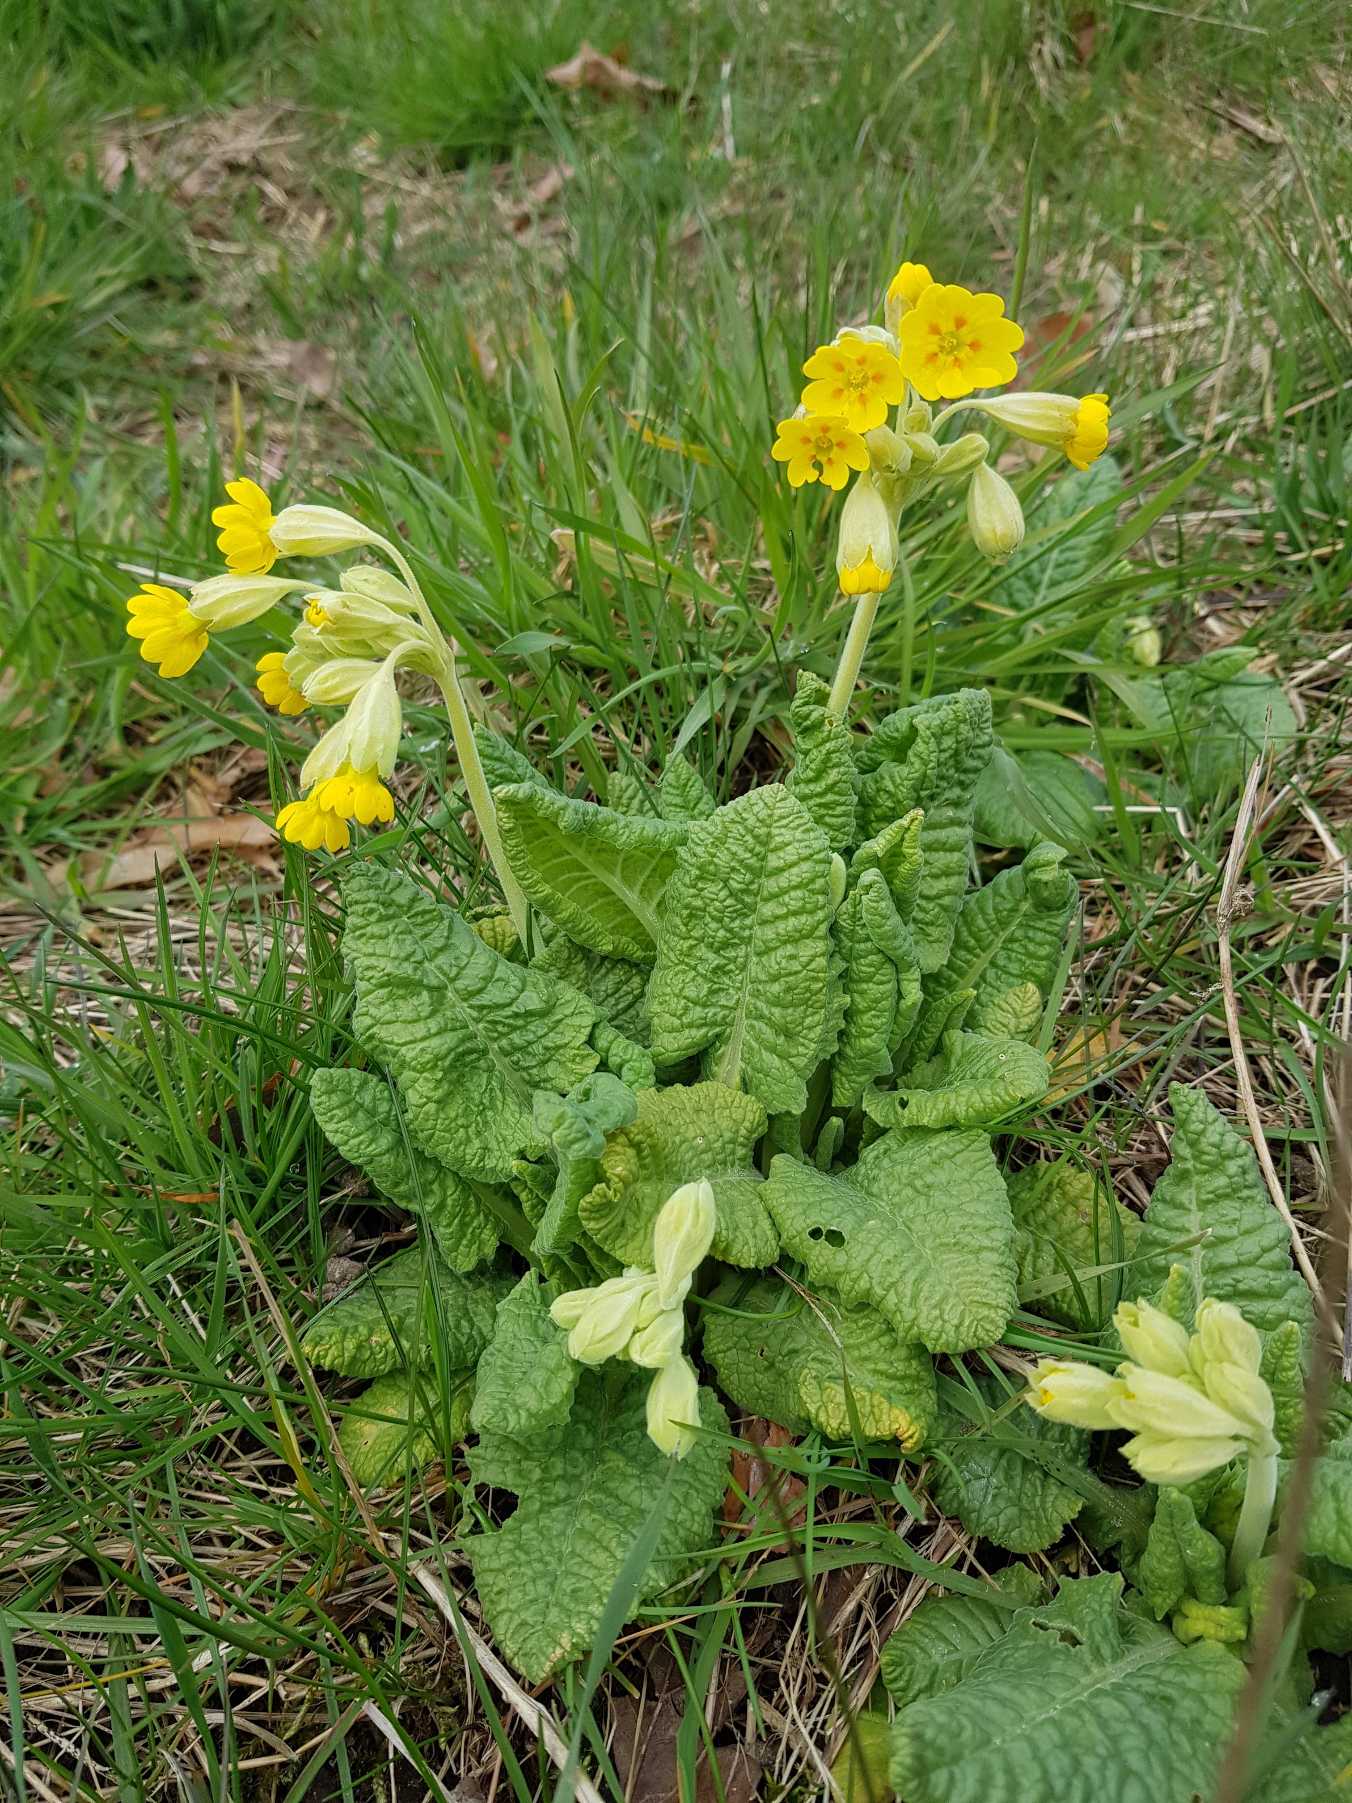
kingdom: Plantae
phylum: Tracheophyta
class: Magnoliopsida
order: Ericales
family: Primulaceae
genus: Primula
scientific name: Primula veris
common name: Hulkravet kodriver
